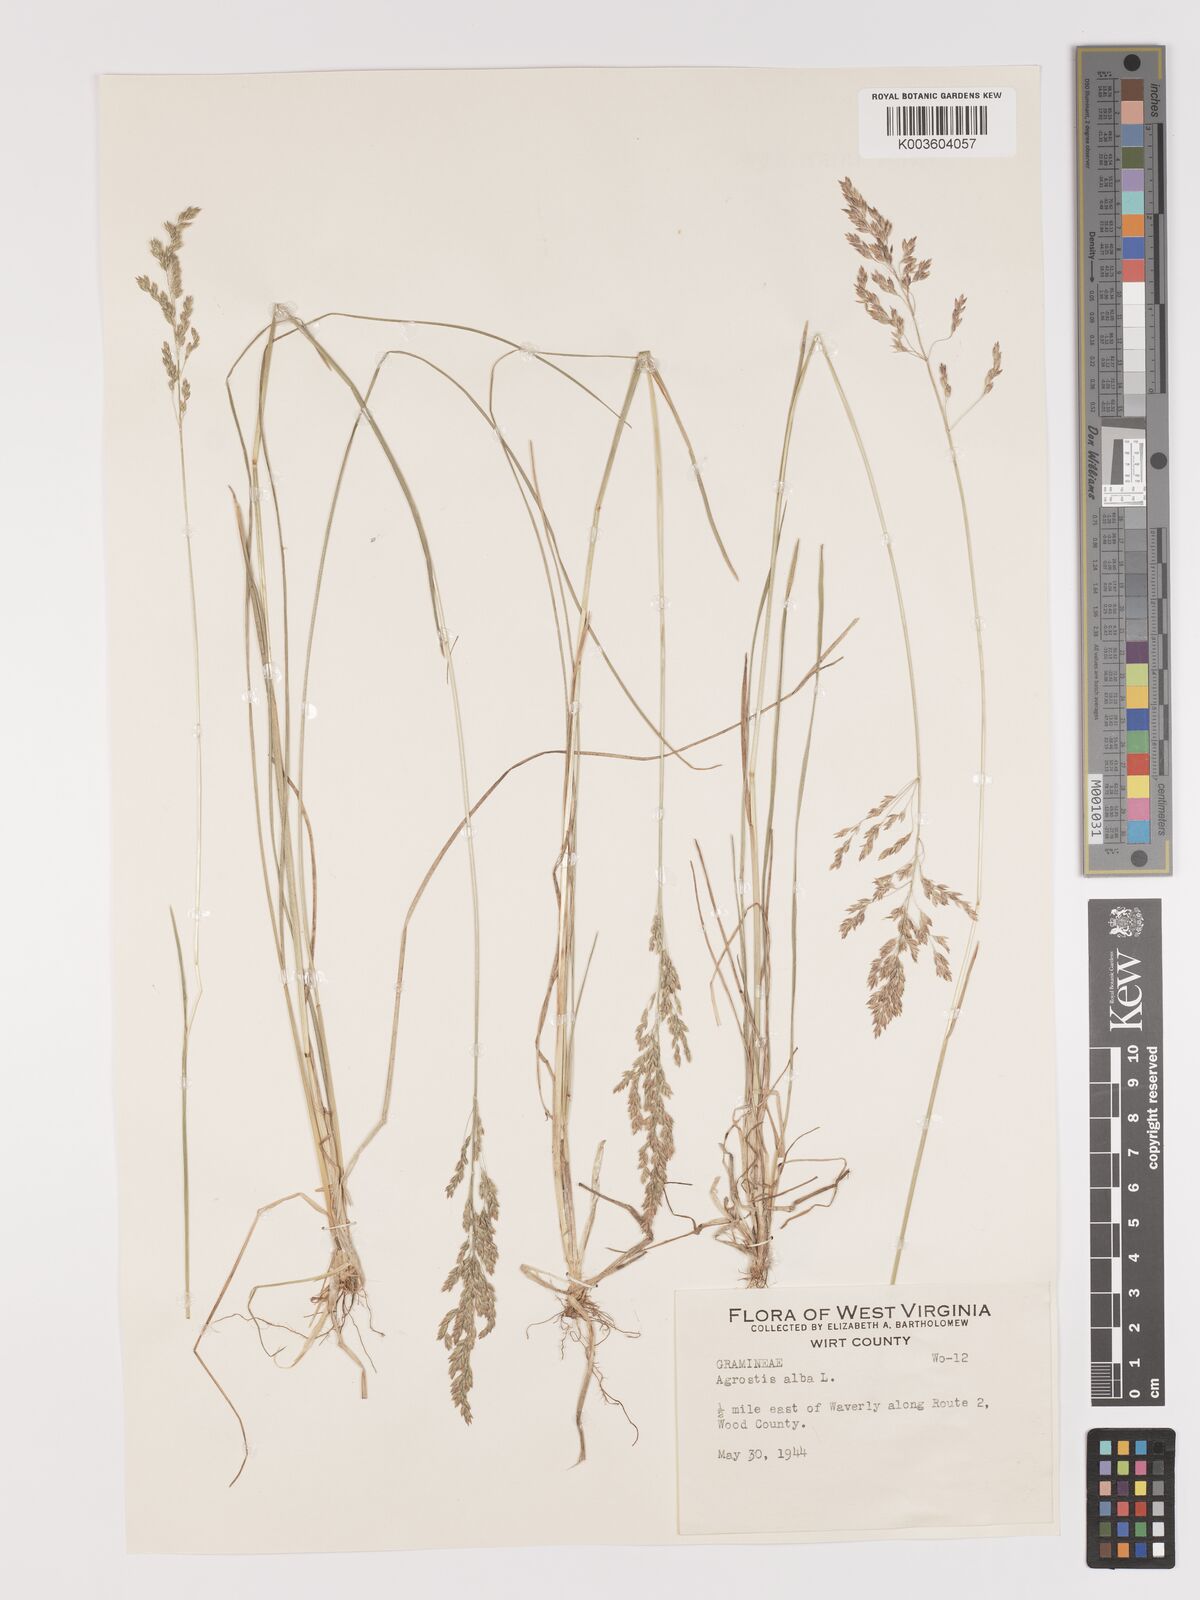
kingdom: Plantae
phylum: Tracheophyta
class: Liliopsida
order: Poales
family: Poaceae
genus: Agrostis
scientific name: Agrostis gigantea
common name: Black bent
